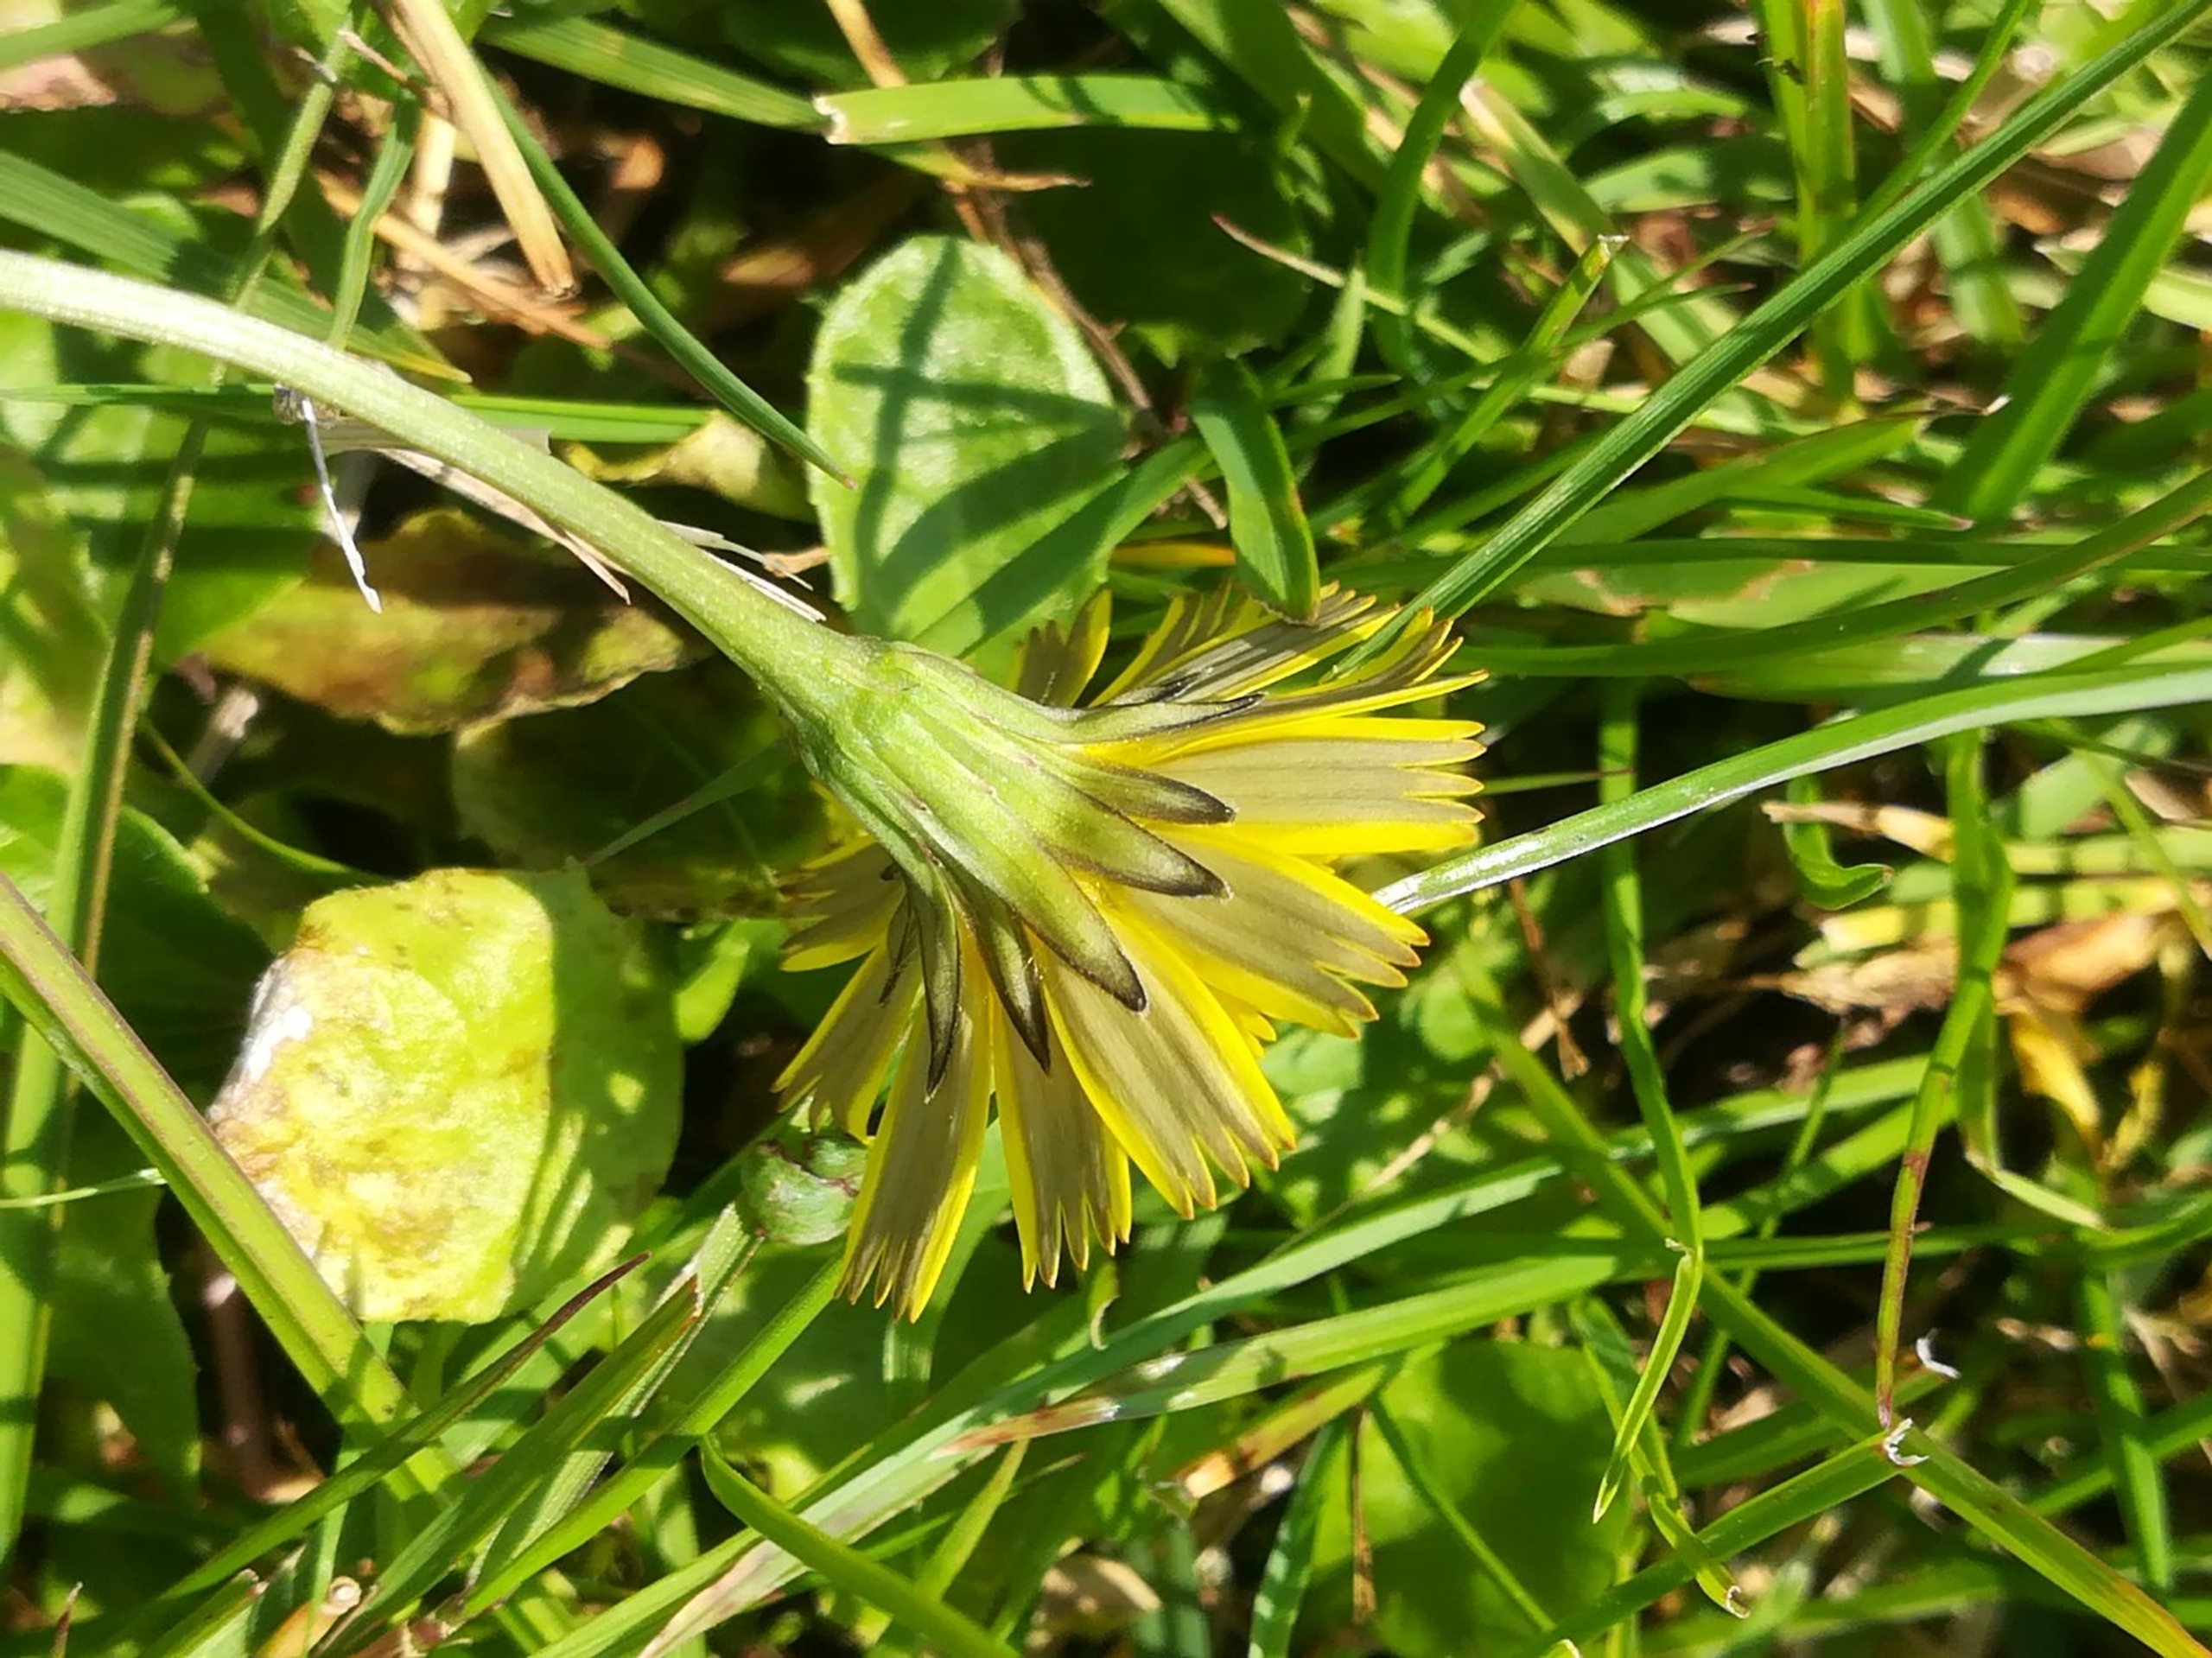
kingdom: Plantae
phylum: Tracheophyta
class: Magnoliopsida
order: Asterales
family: Asteraceae
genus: Thrincia
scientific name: Thrincia saxatilis
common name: Hundesalat
